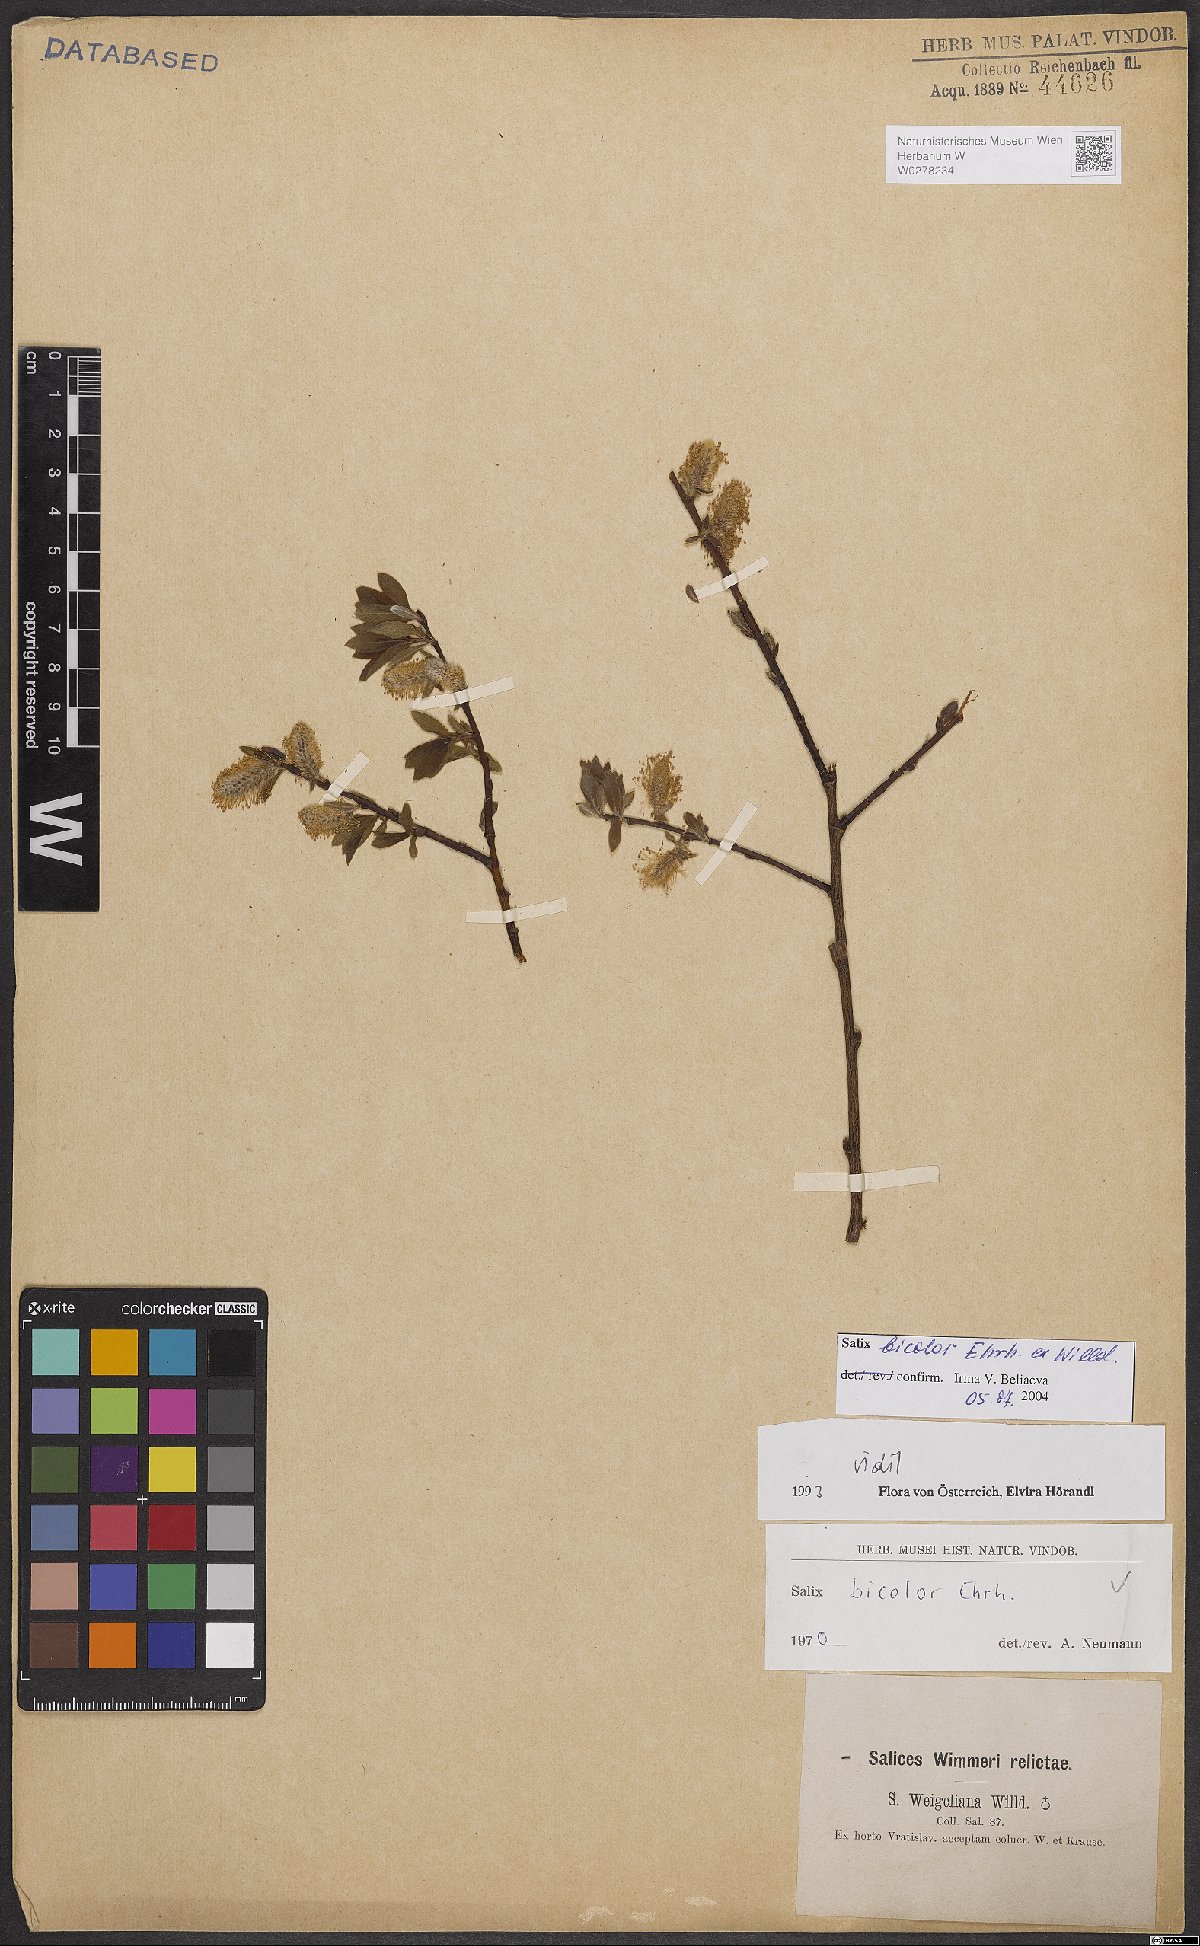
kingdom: Plantae
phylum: Tracheophyta
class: Magnoliopsida
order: Malpighiales
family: Salicaceae
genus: Salix
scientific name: Salix bicolor
